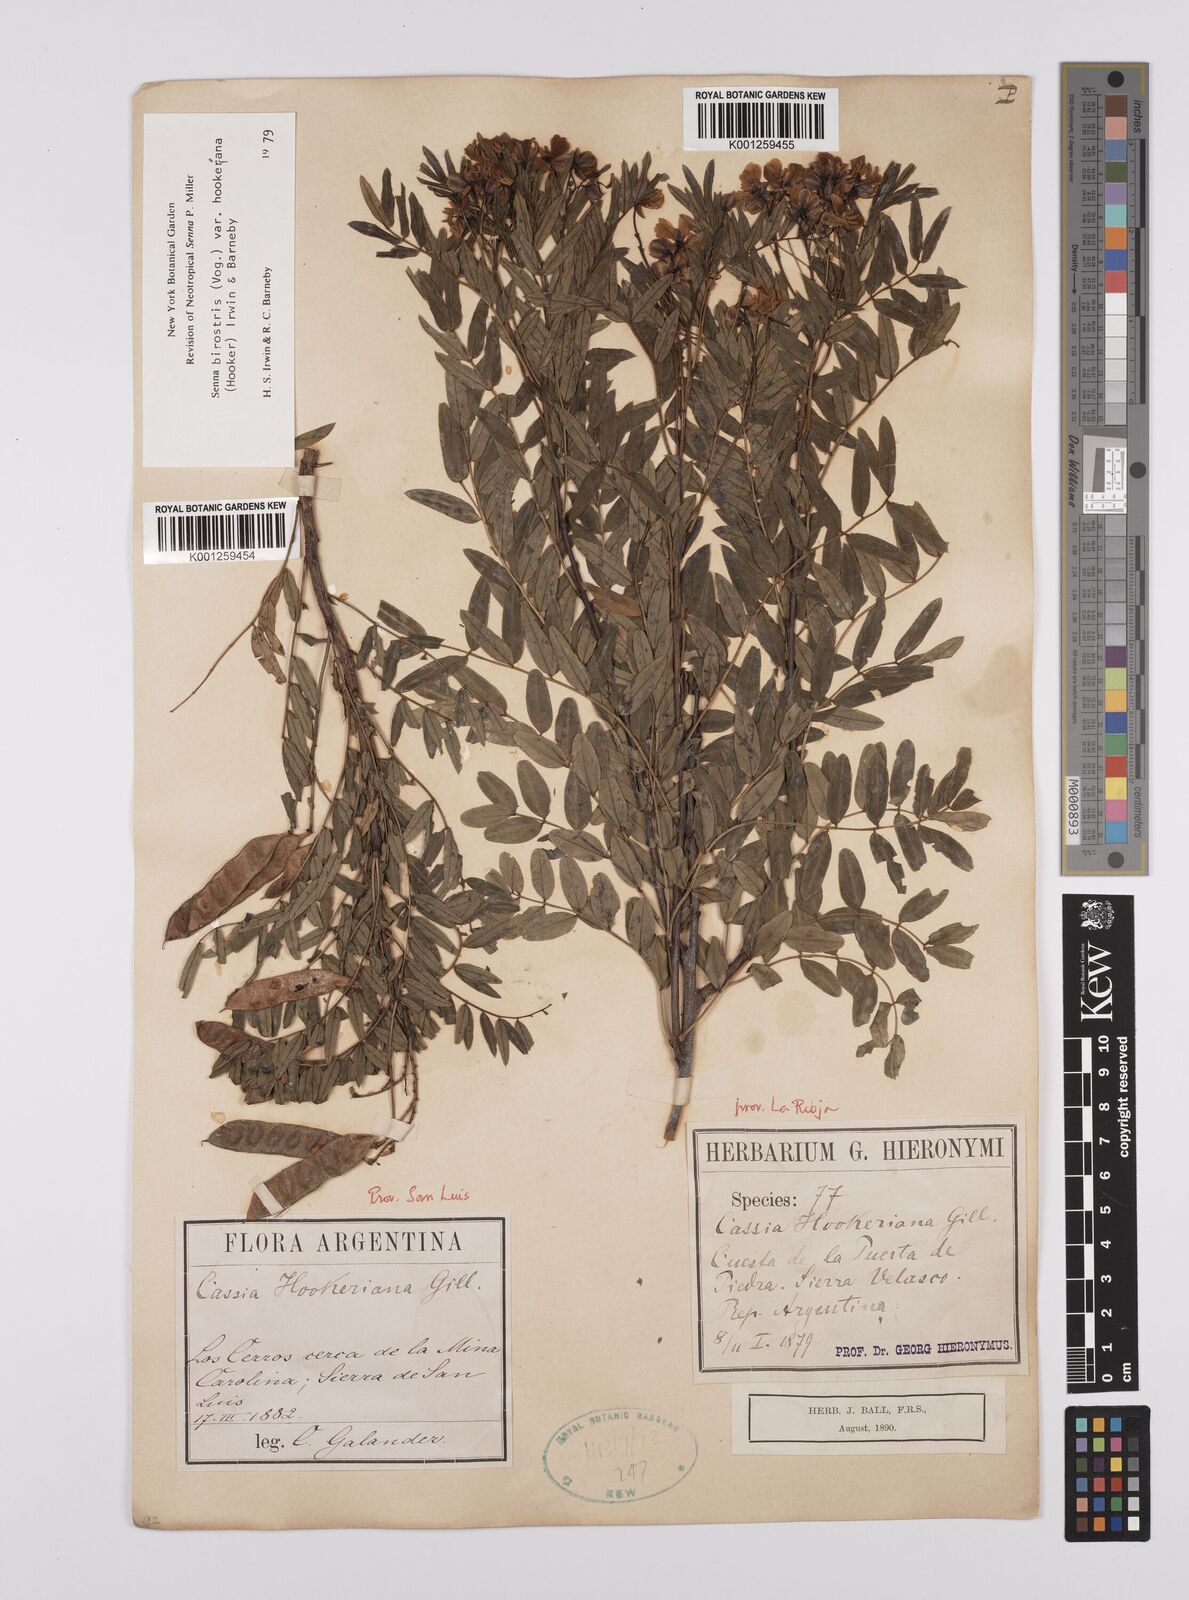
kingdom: Plantae
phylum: Tracheophyta
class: Magnoliopsida
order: Fabales
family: Fabaceae
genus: Senna
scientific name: Senna birostris
